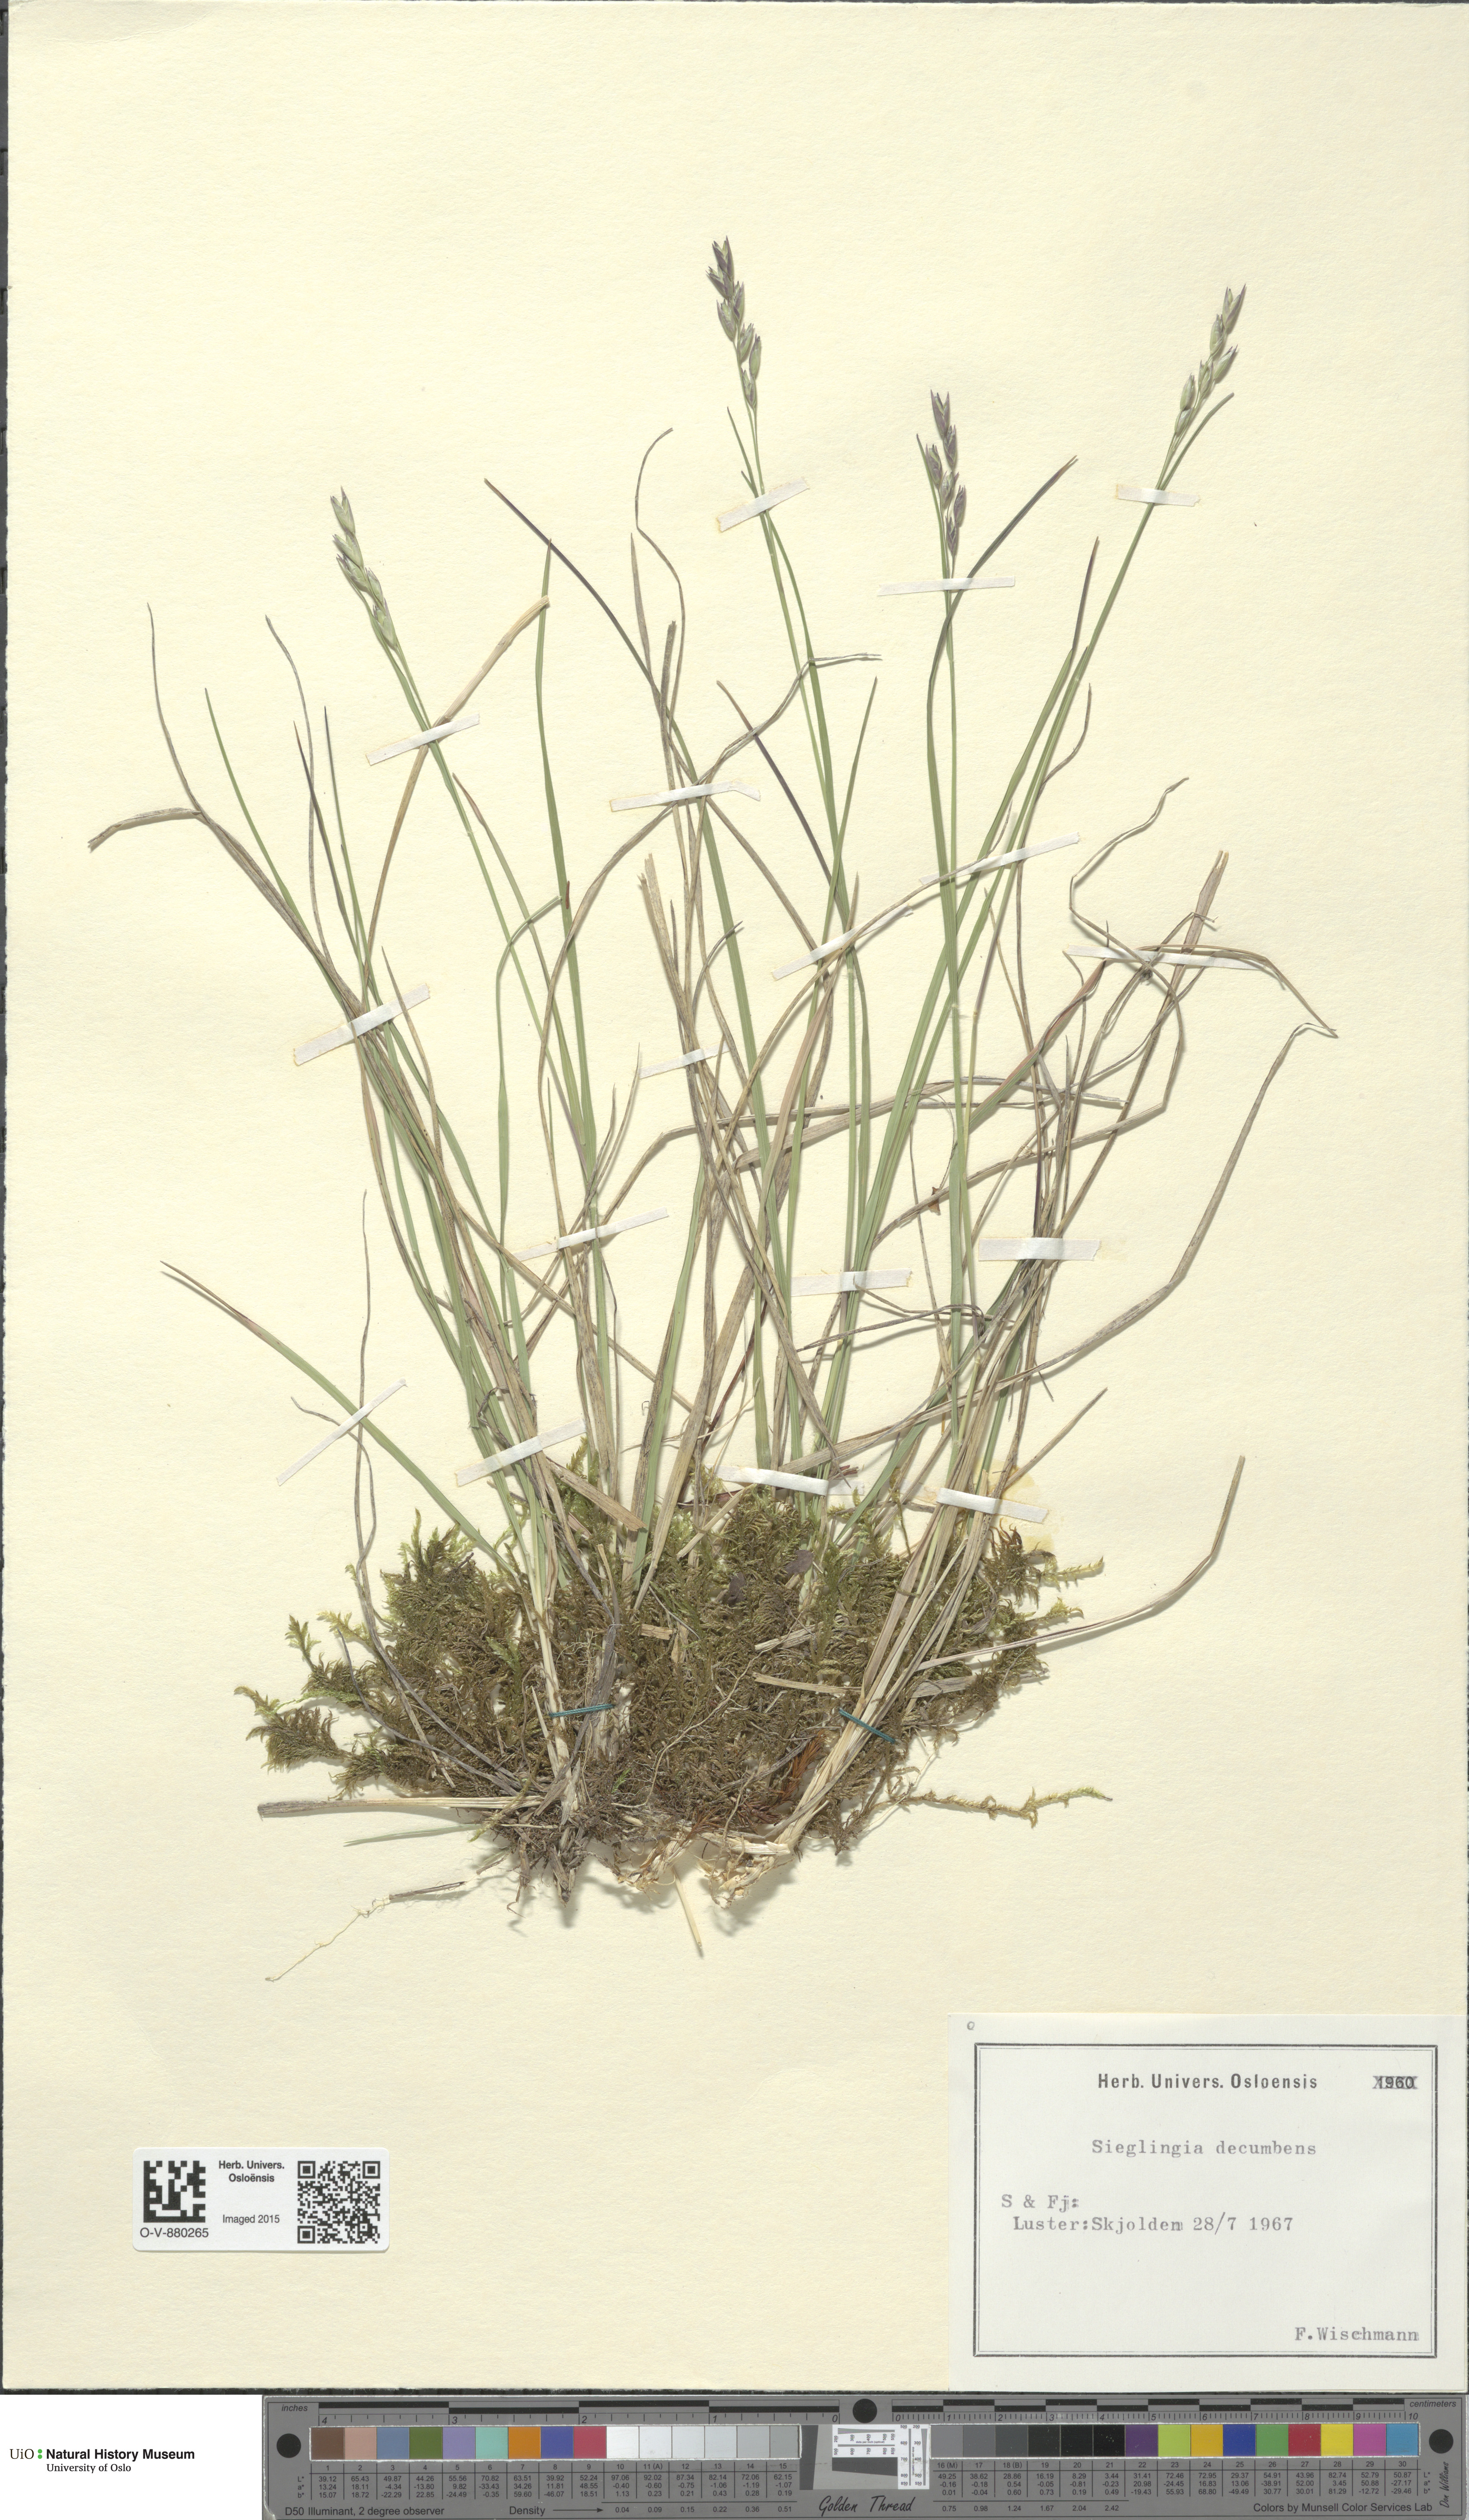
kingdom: Plantae
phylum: Tracheophyta
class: Liliopsida
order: Poales
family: Poaceae
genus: Danthonia
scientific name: Danthonia decumbens
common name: Common heathgrass
